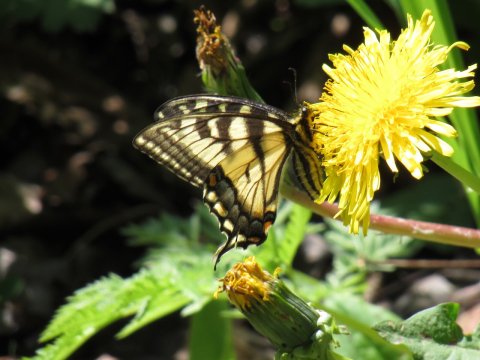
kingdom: Animalia
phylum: Arthropoda
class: Insecta
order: Lepidoptera
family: Papilionidae
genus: Pterourus
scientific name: Pterourus canadensis
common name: Canadian Tiger Swallowtail
